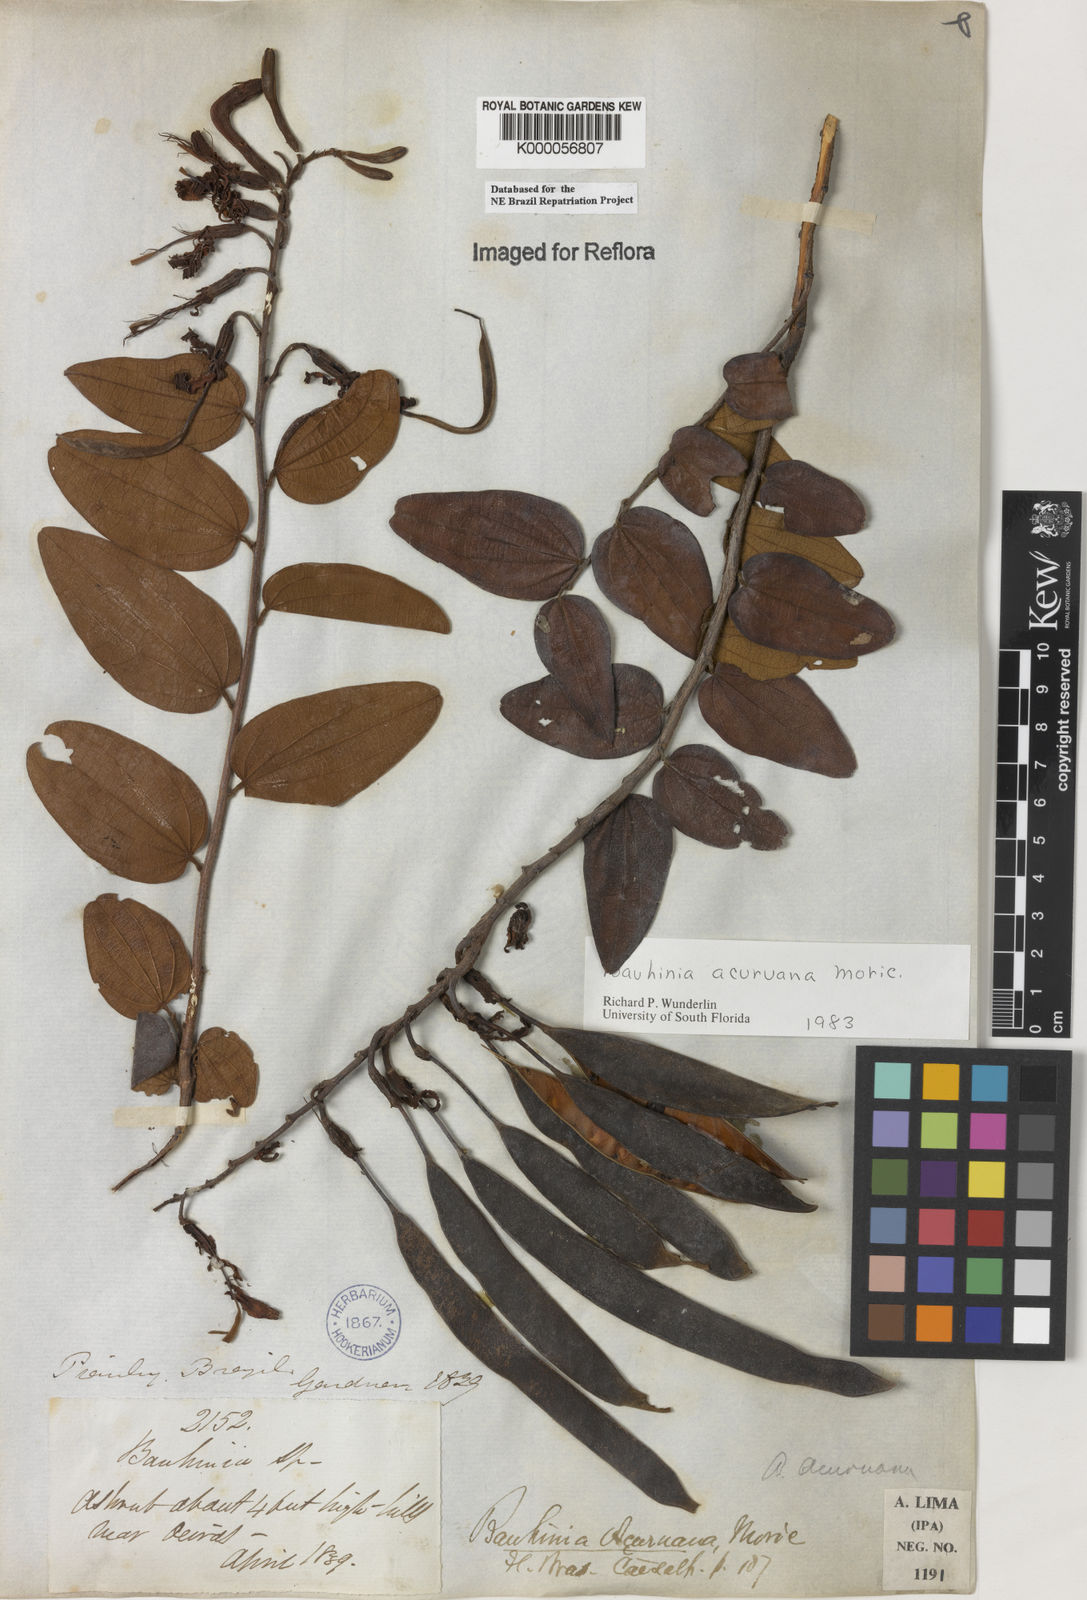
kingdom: Plantae
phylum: Tracheophyta
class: Magnoliopsida
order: Fabales
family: Fabaceae
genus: Bauhinia
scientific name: Bauhinia acuruana
